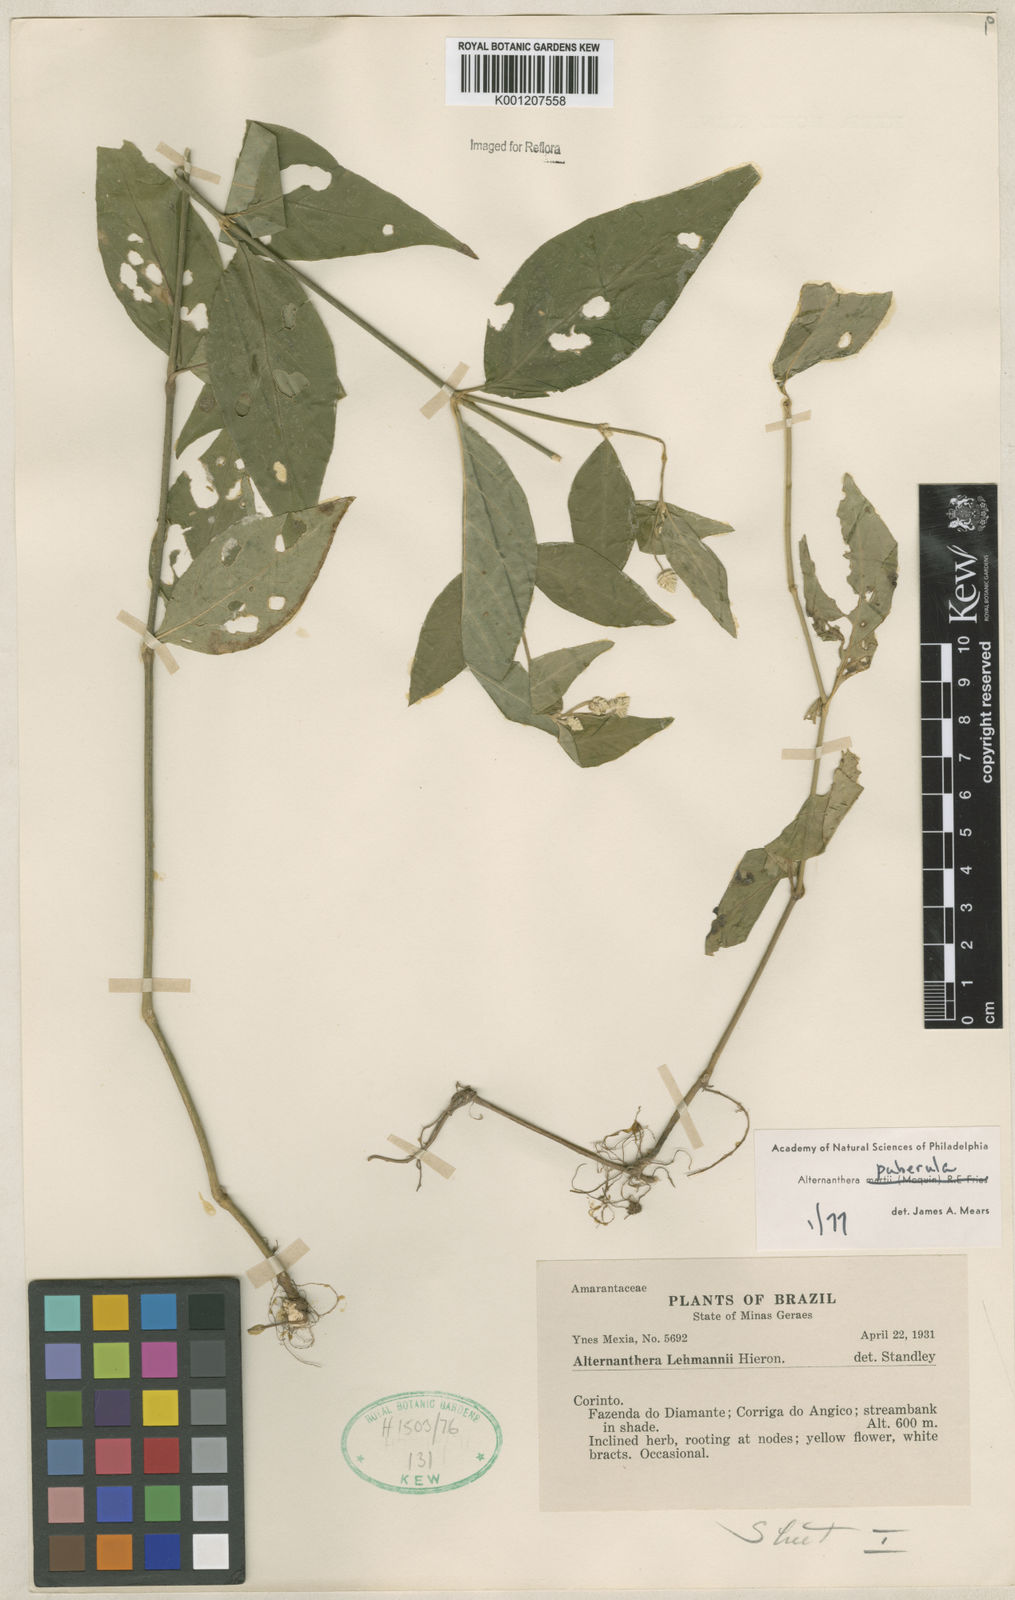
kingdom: Plantae
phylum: Tracheophyta
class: Magnoliopsida
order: Caryophyllales
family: Amaranthaceae
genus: Alternanthera
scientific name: Alternanthera puberula
